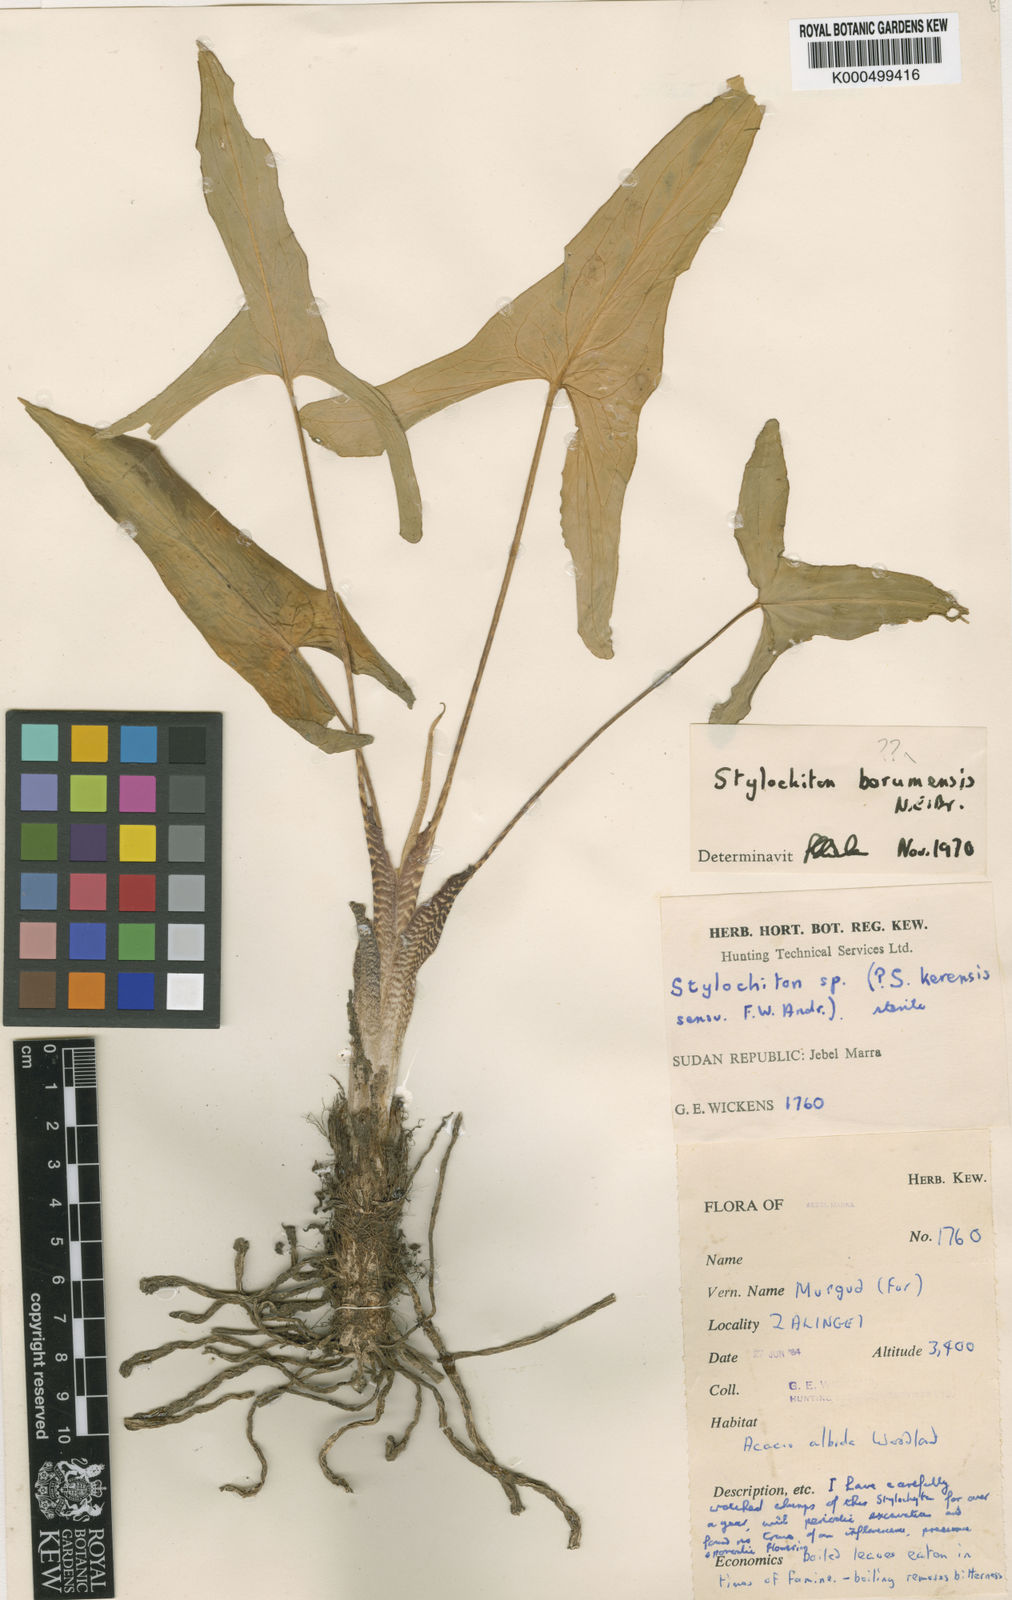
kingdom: Plantae
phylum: Tracheophyta
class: Liliopsida
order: Alismatales
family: Araceae
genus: Stylochaeton
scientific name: Stylochaeton
